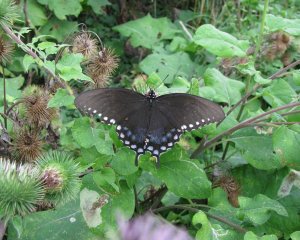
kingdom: Animalia
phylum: Arthropoda
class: Insecta
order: Lepidoptera
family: Papilionidae
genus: Pterourus
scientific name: Pterourus troilus
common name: Spicebush Swallowtail
